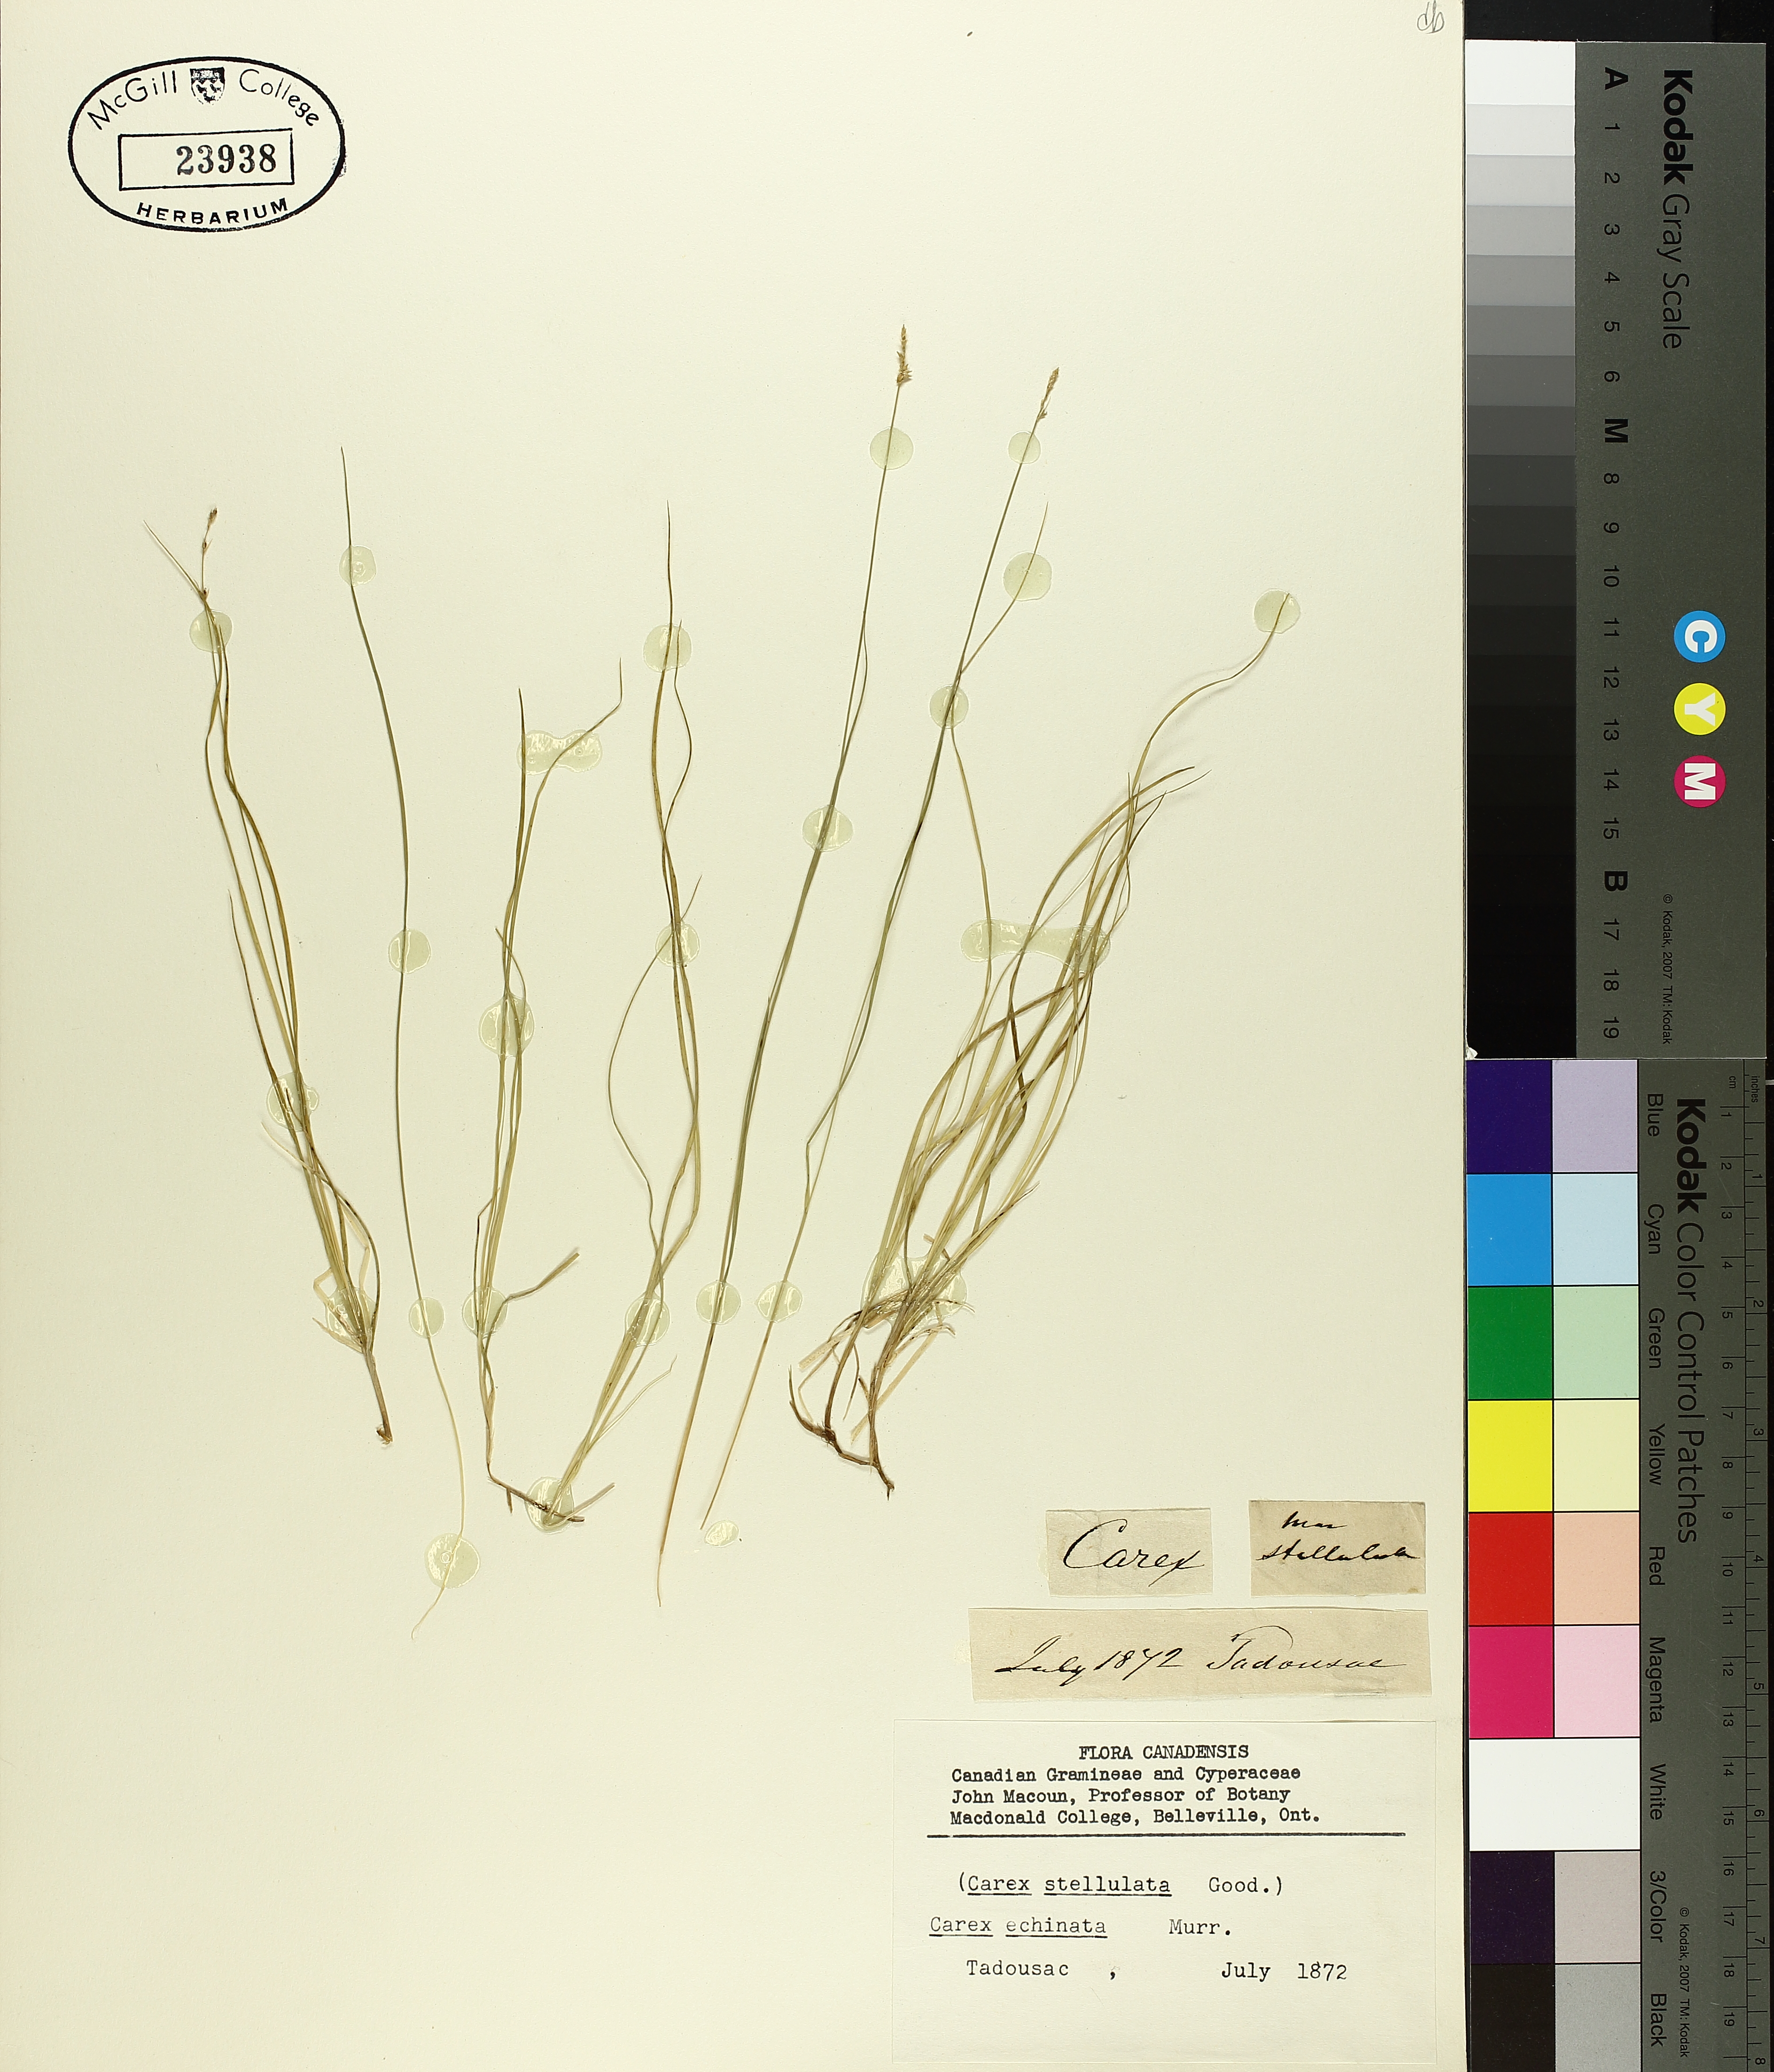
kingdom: Plantae
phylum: Tracheophyta
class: Liliopsida
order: Poales
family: Cyperaceae
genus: Carex
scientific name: Carex echinata
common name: Star sedge
